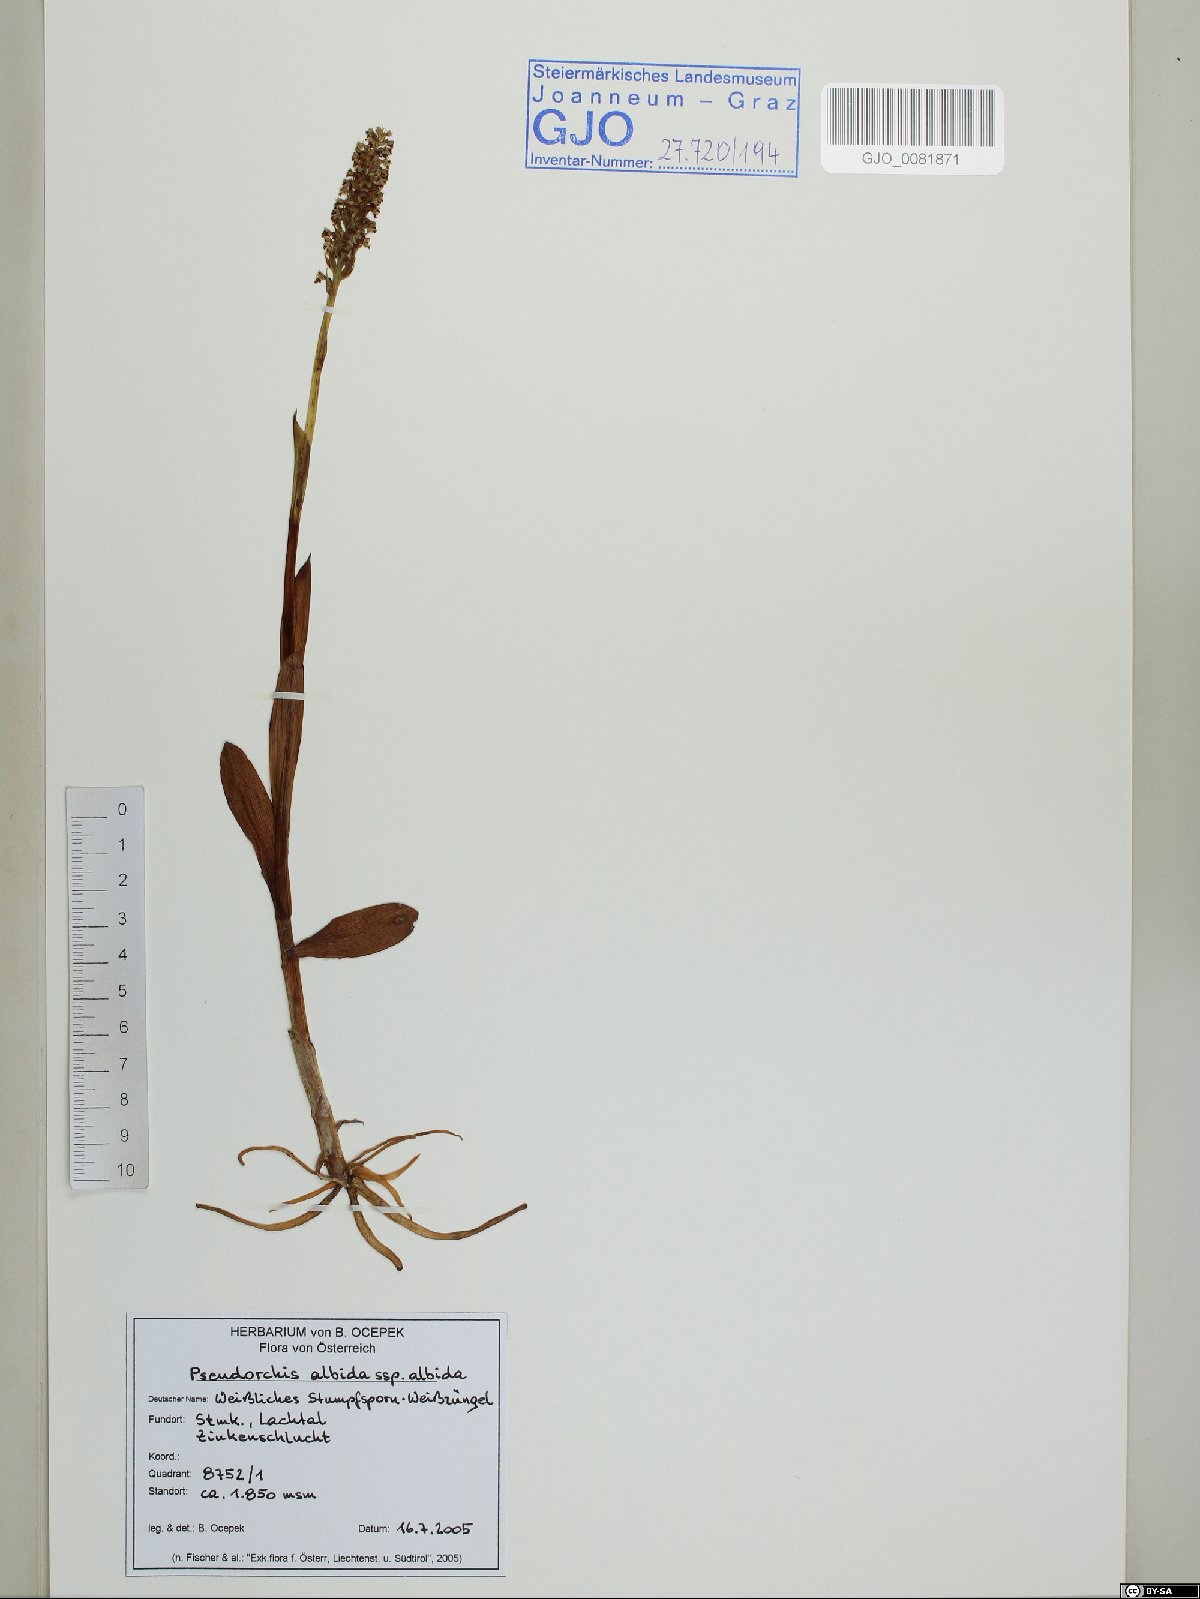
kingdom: Plantae
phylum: Tracheophyta
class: Liliopsida
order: Asparagales
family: Orchidaceae
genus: Pseudorchis
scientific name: Pseudorchis albida
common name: Small-white orchid
